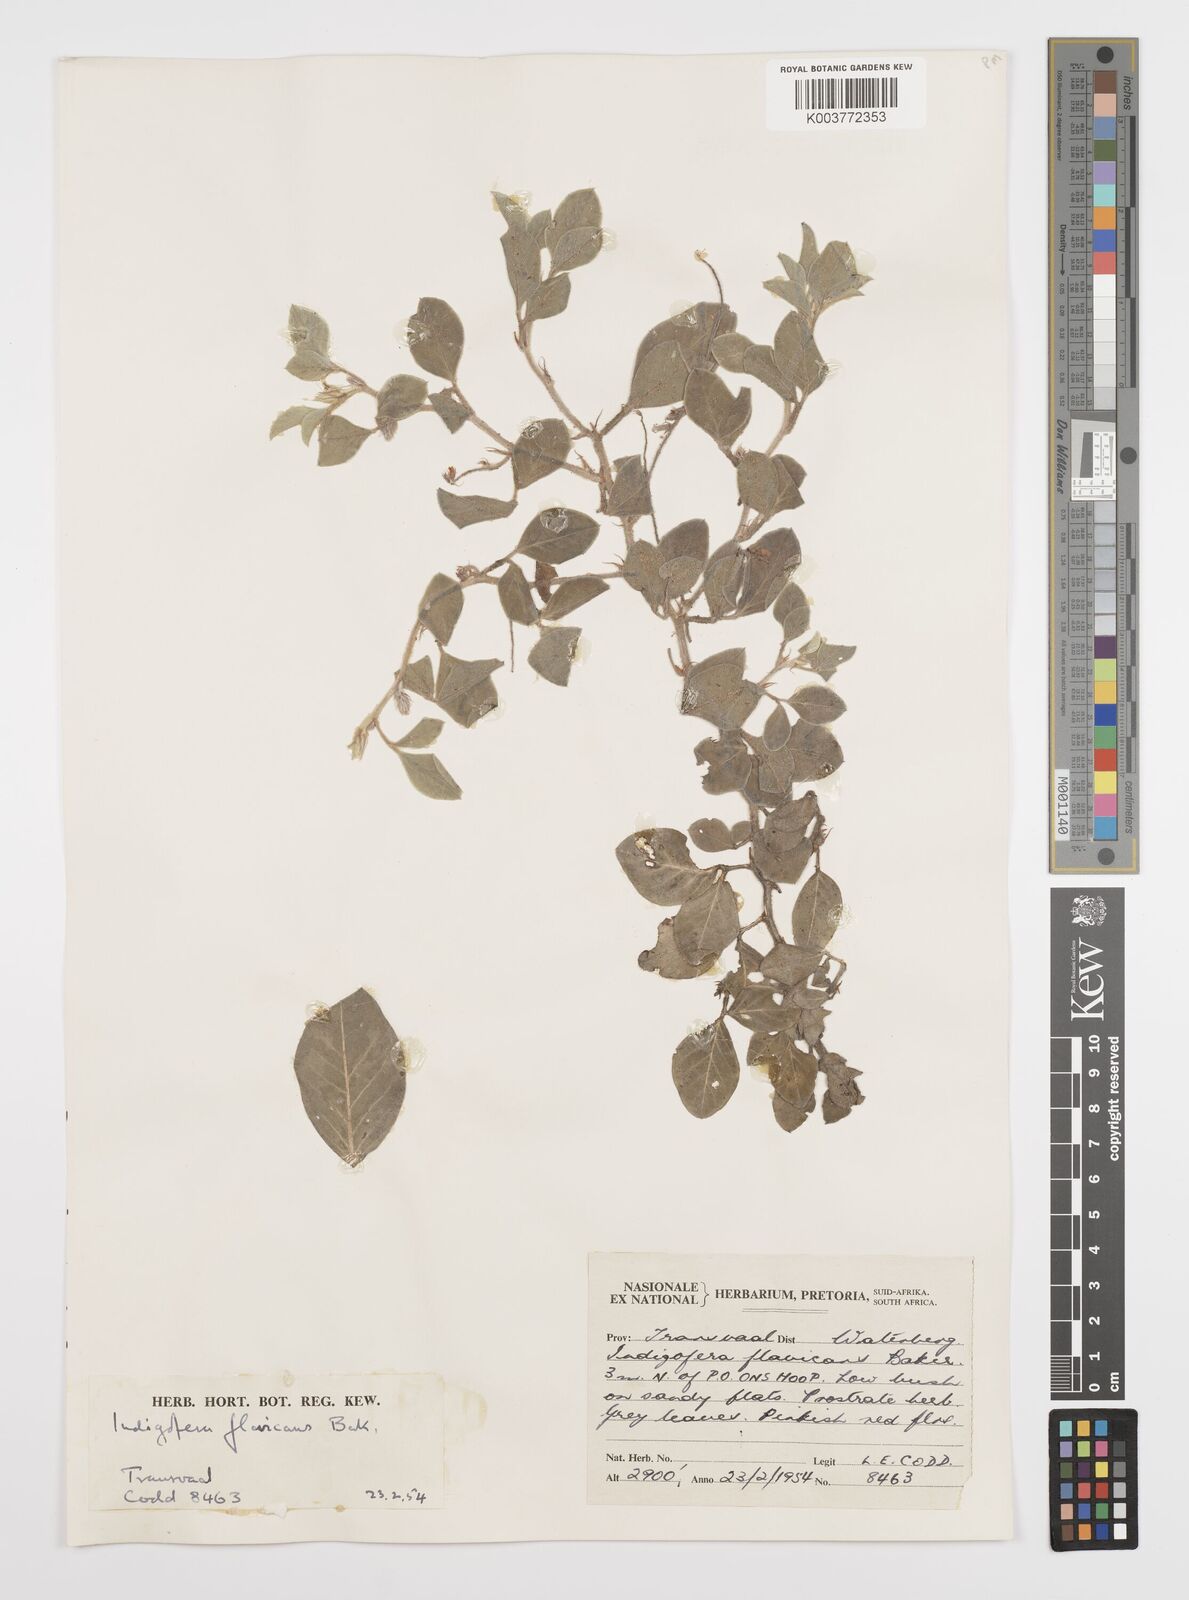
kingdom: Plantae
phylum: Tracheophyta
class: Magnoliopsida
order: Fabales
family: Fabaceae
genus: Indigofera
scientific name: Indigofera flavicans
